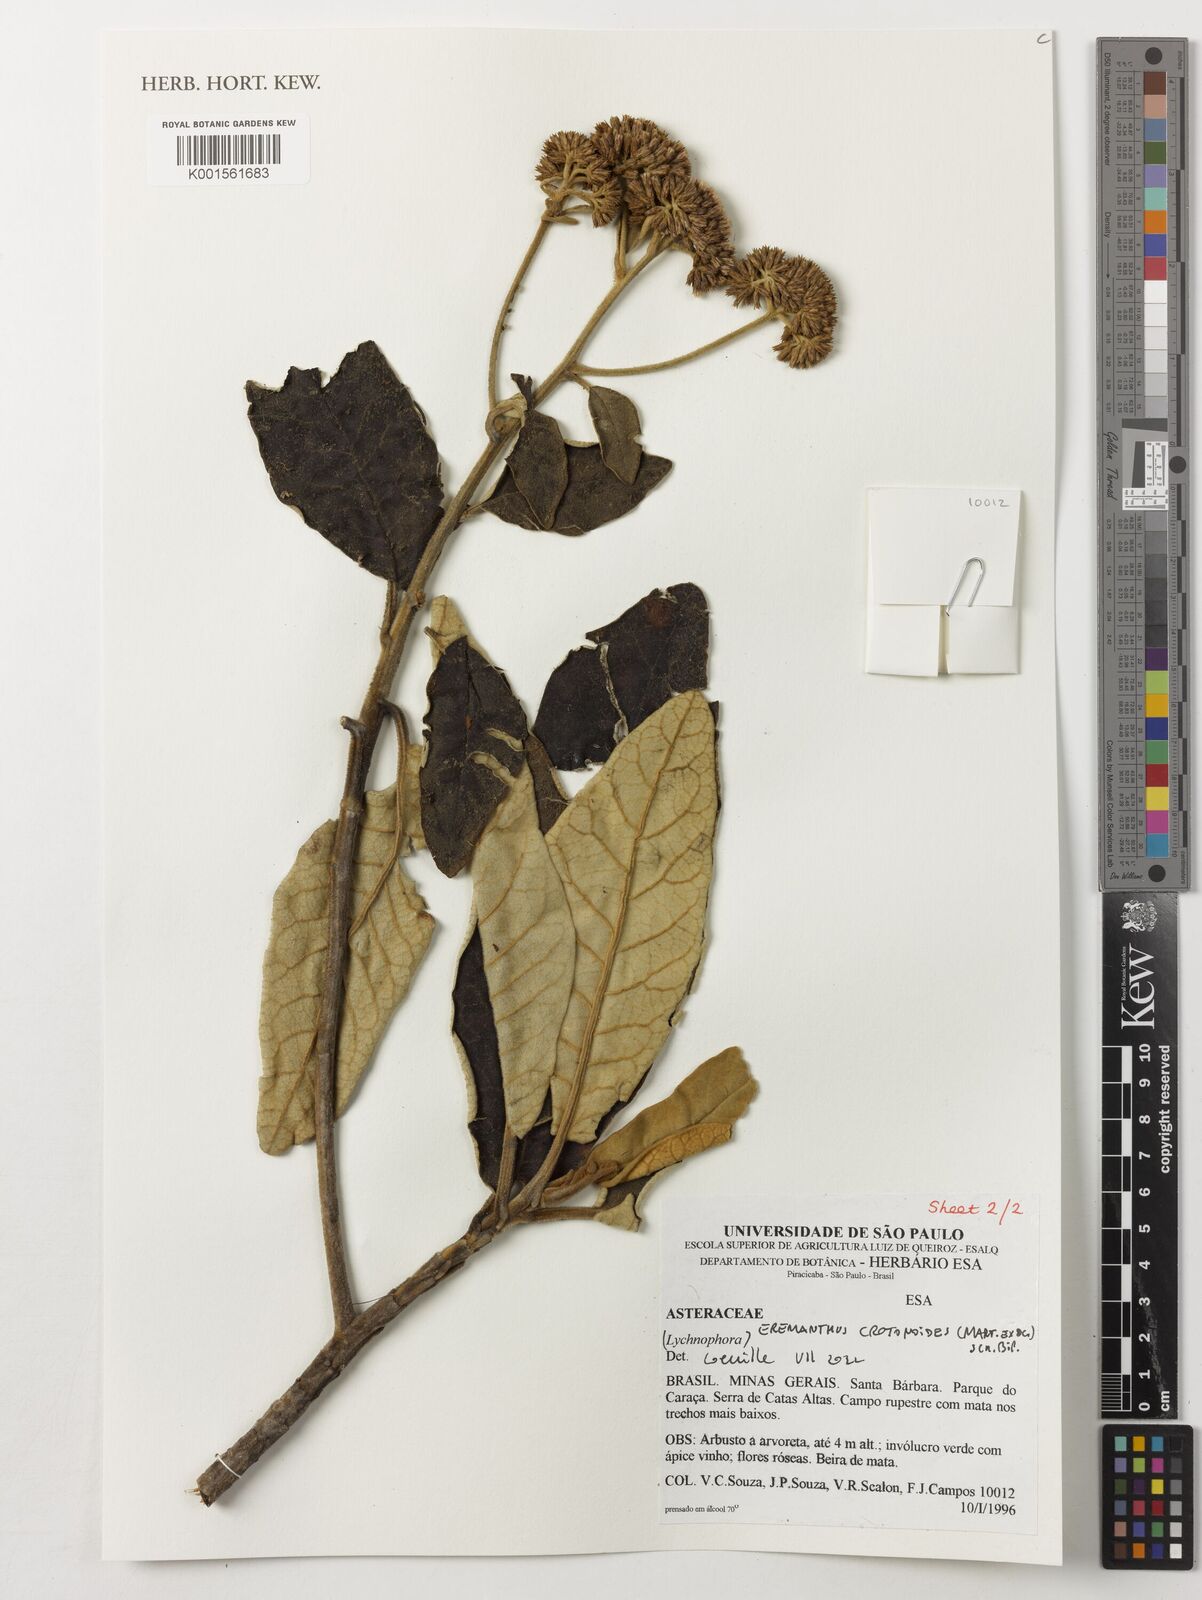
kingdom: Plantae
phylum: Tracheophyta
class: Magnoliopsida
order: Asterales
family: Asteraceae
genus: Eremanthus
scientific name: Eremanthus crotonoides
